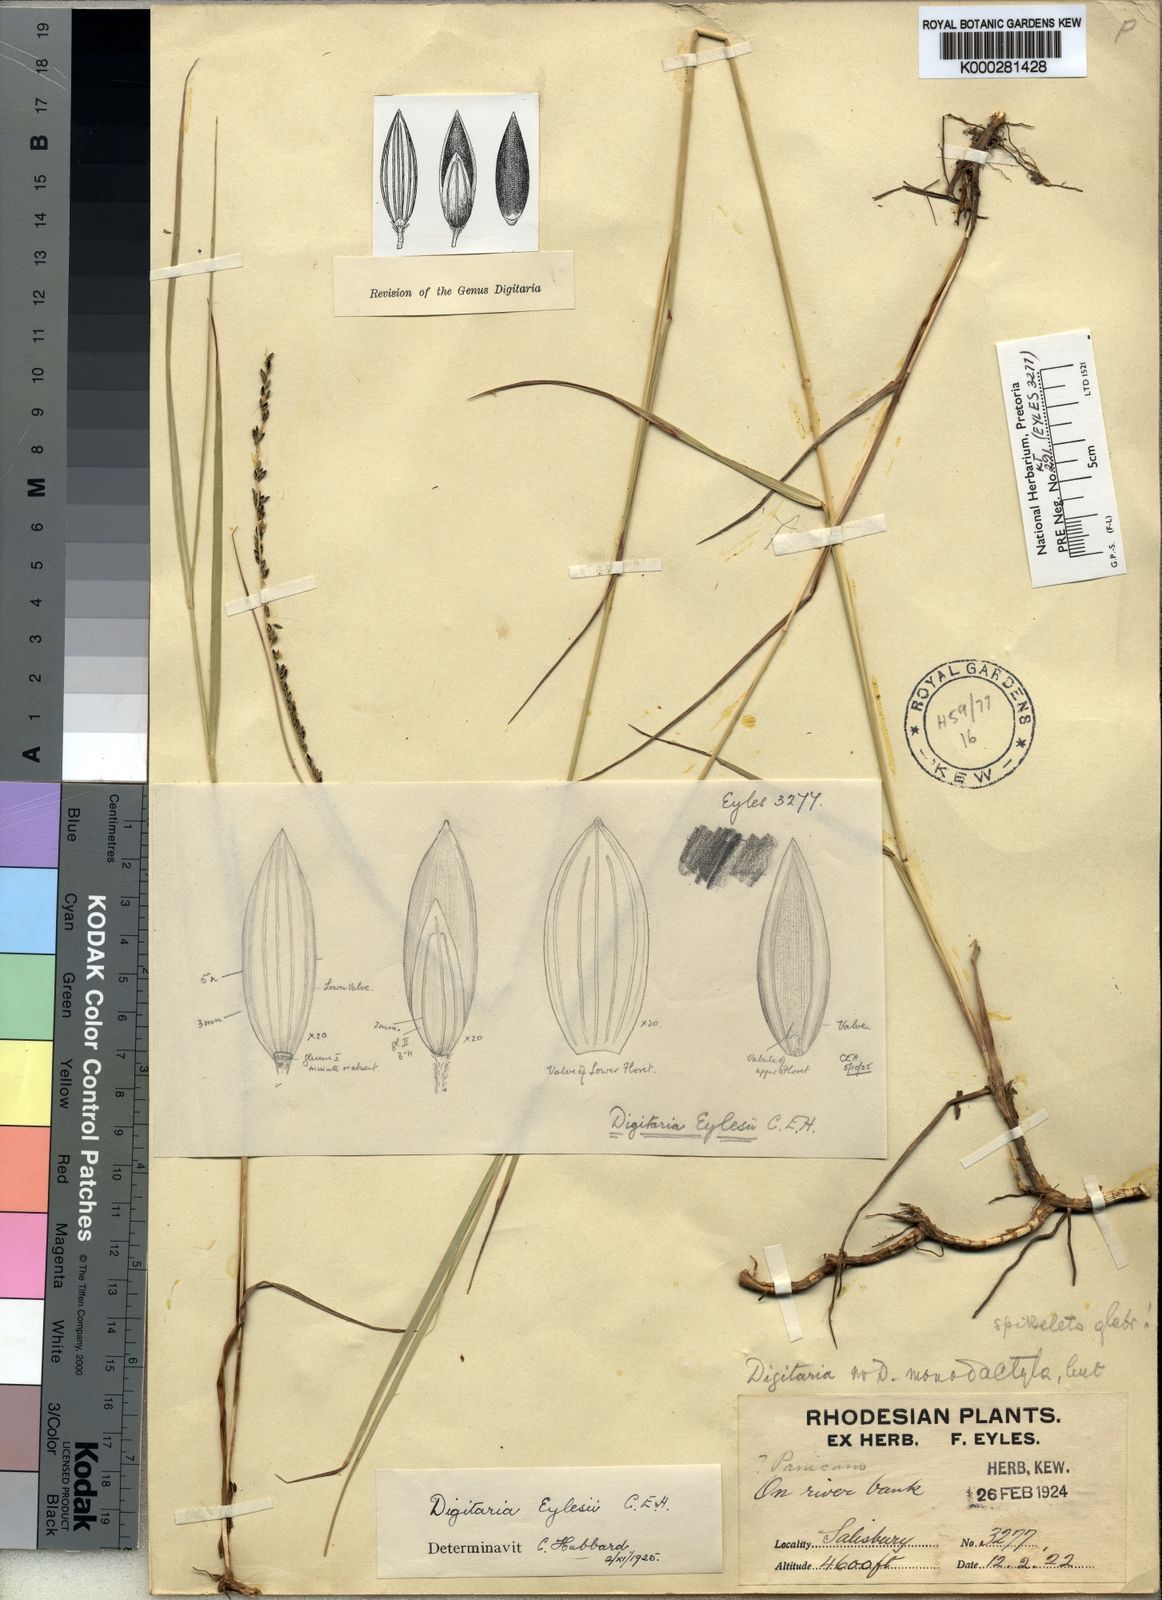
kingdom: Plantae
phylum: Tracheophyta
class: Liliopsida
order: Poales
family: Poaceae
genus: Digitaria
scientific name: Digitaria eylesii
